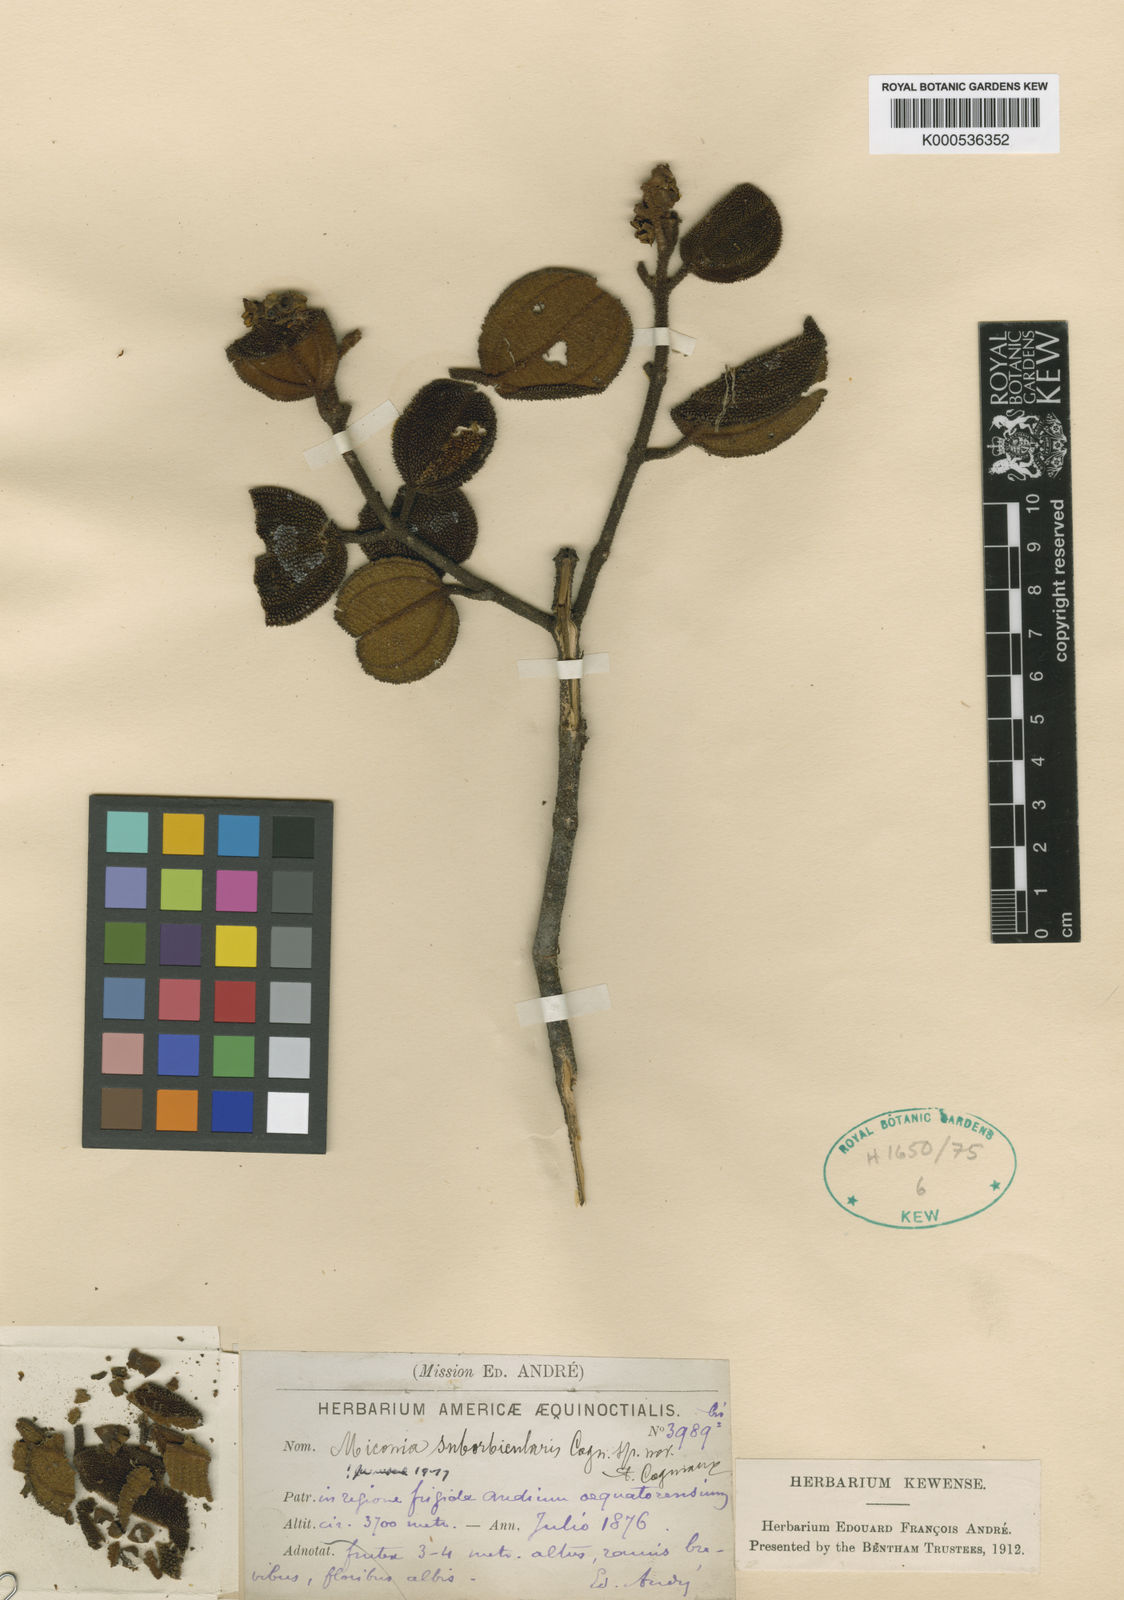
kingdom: Plantae
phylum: Tracheophyta
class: Magnoliopsida
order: Myrtales
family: Melastomataceae
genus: Miconia
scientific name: Miconia suborbicularis
